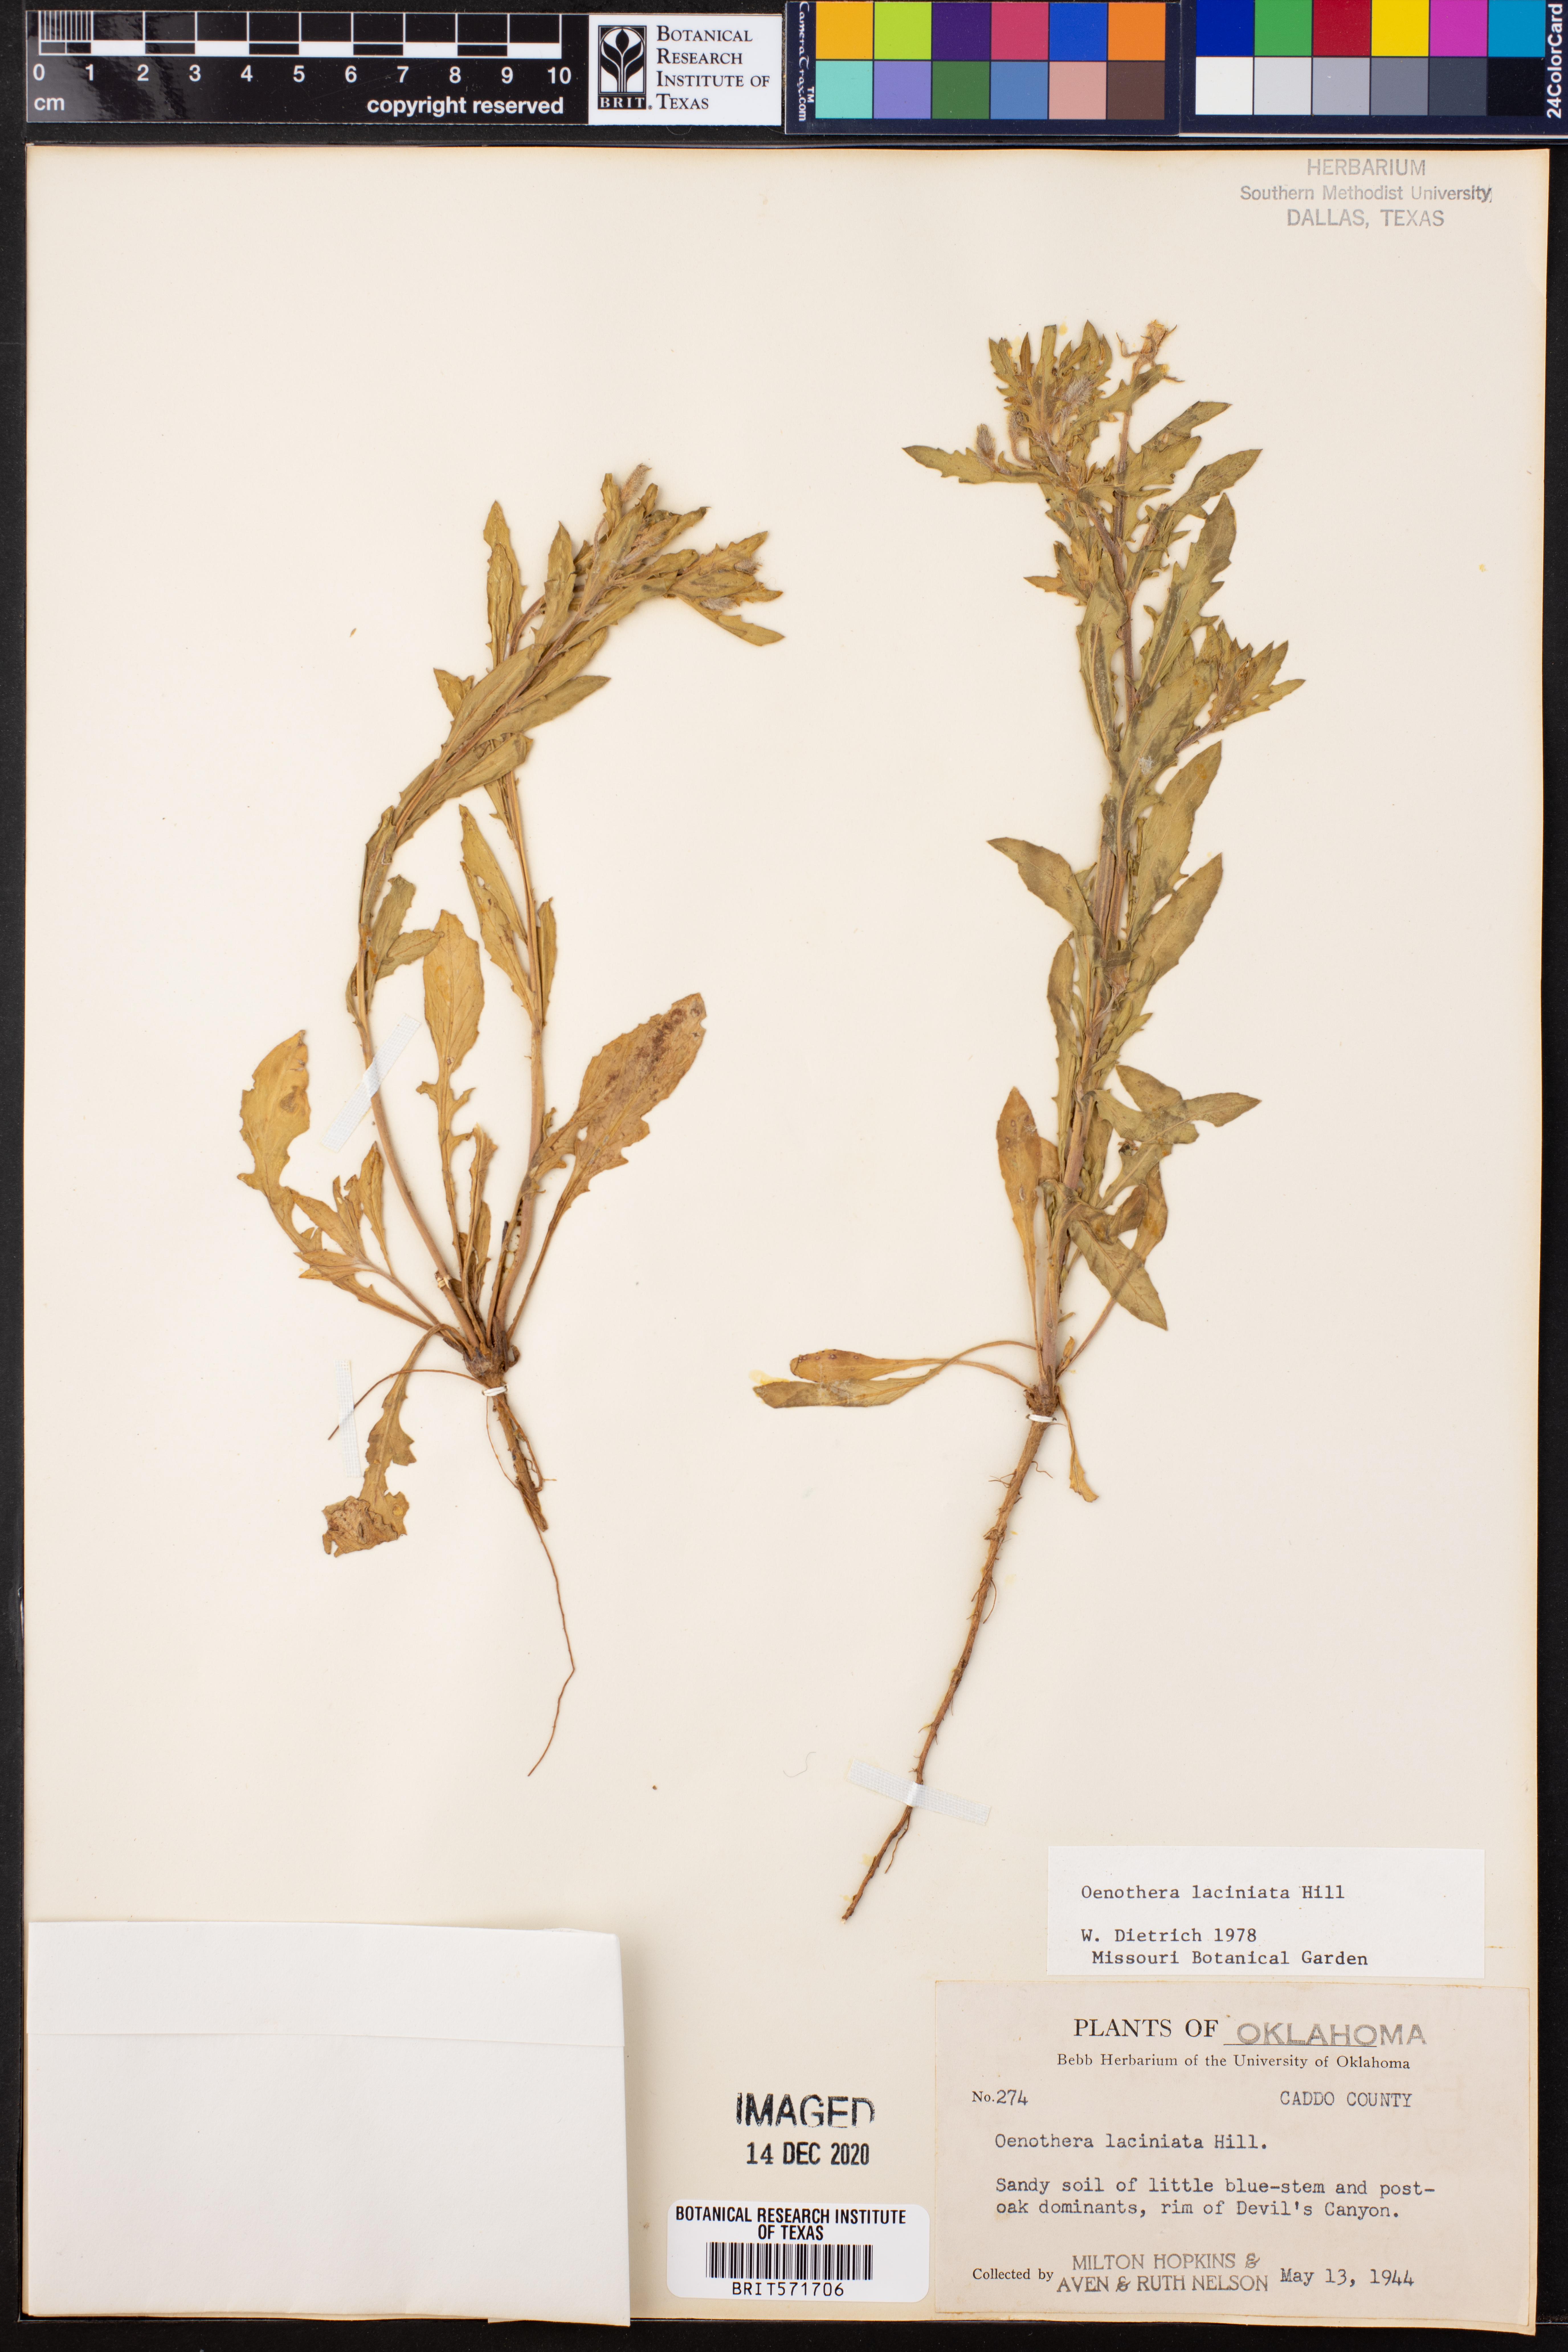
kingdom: Plantae
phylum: Tracheophyta
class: Magnoliopsida
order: Myrtales
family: Onagraceae
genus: Oenothera
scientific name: Oenothera laciniata
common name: Cut-leaved evening-primrose
